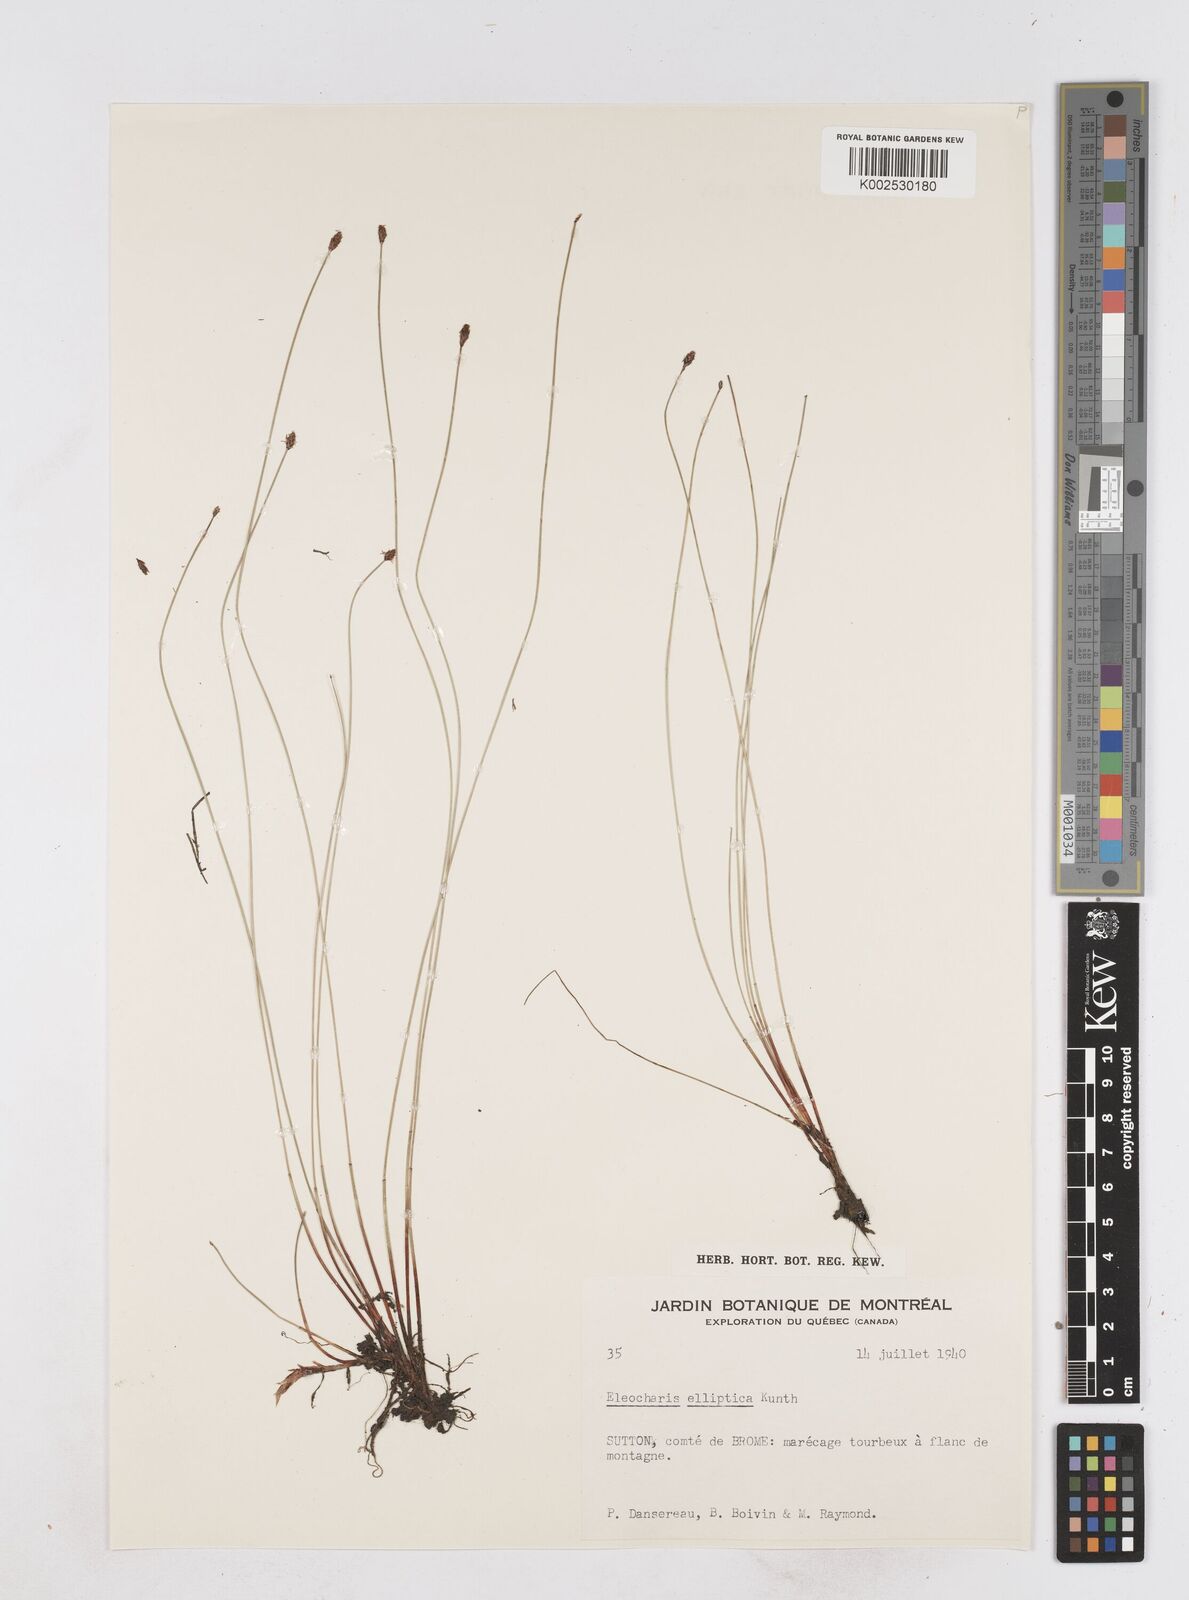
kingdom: Plantae
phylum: Tracheophyta
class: Liliopsida
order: Poales
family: Cyperaceae
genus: Eleocharis
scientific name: Eleocharis elliptica
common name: Capitate spikerush
